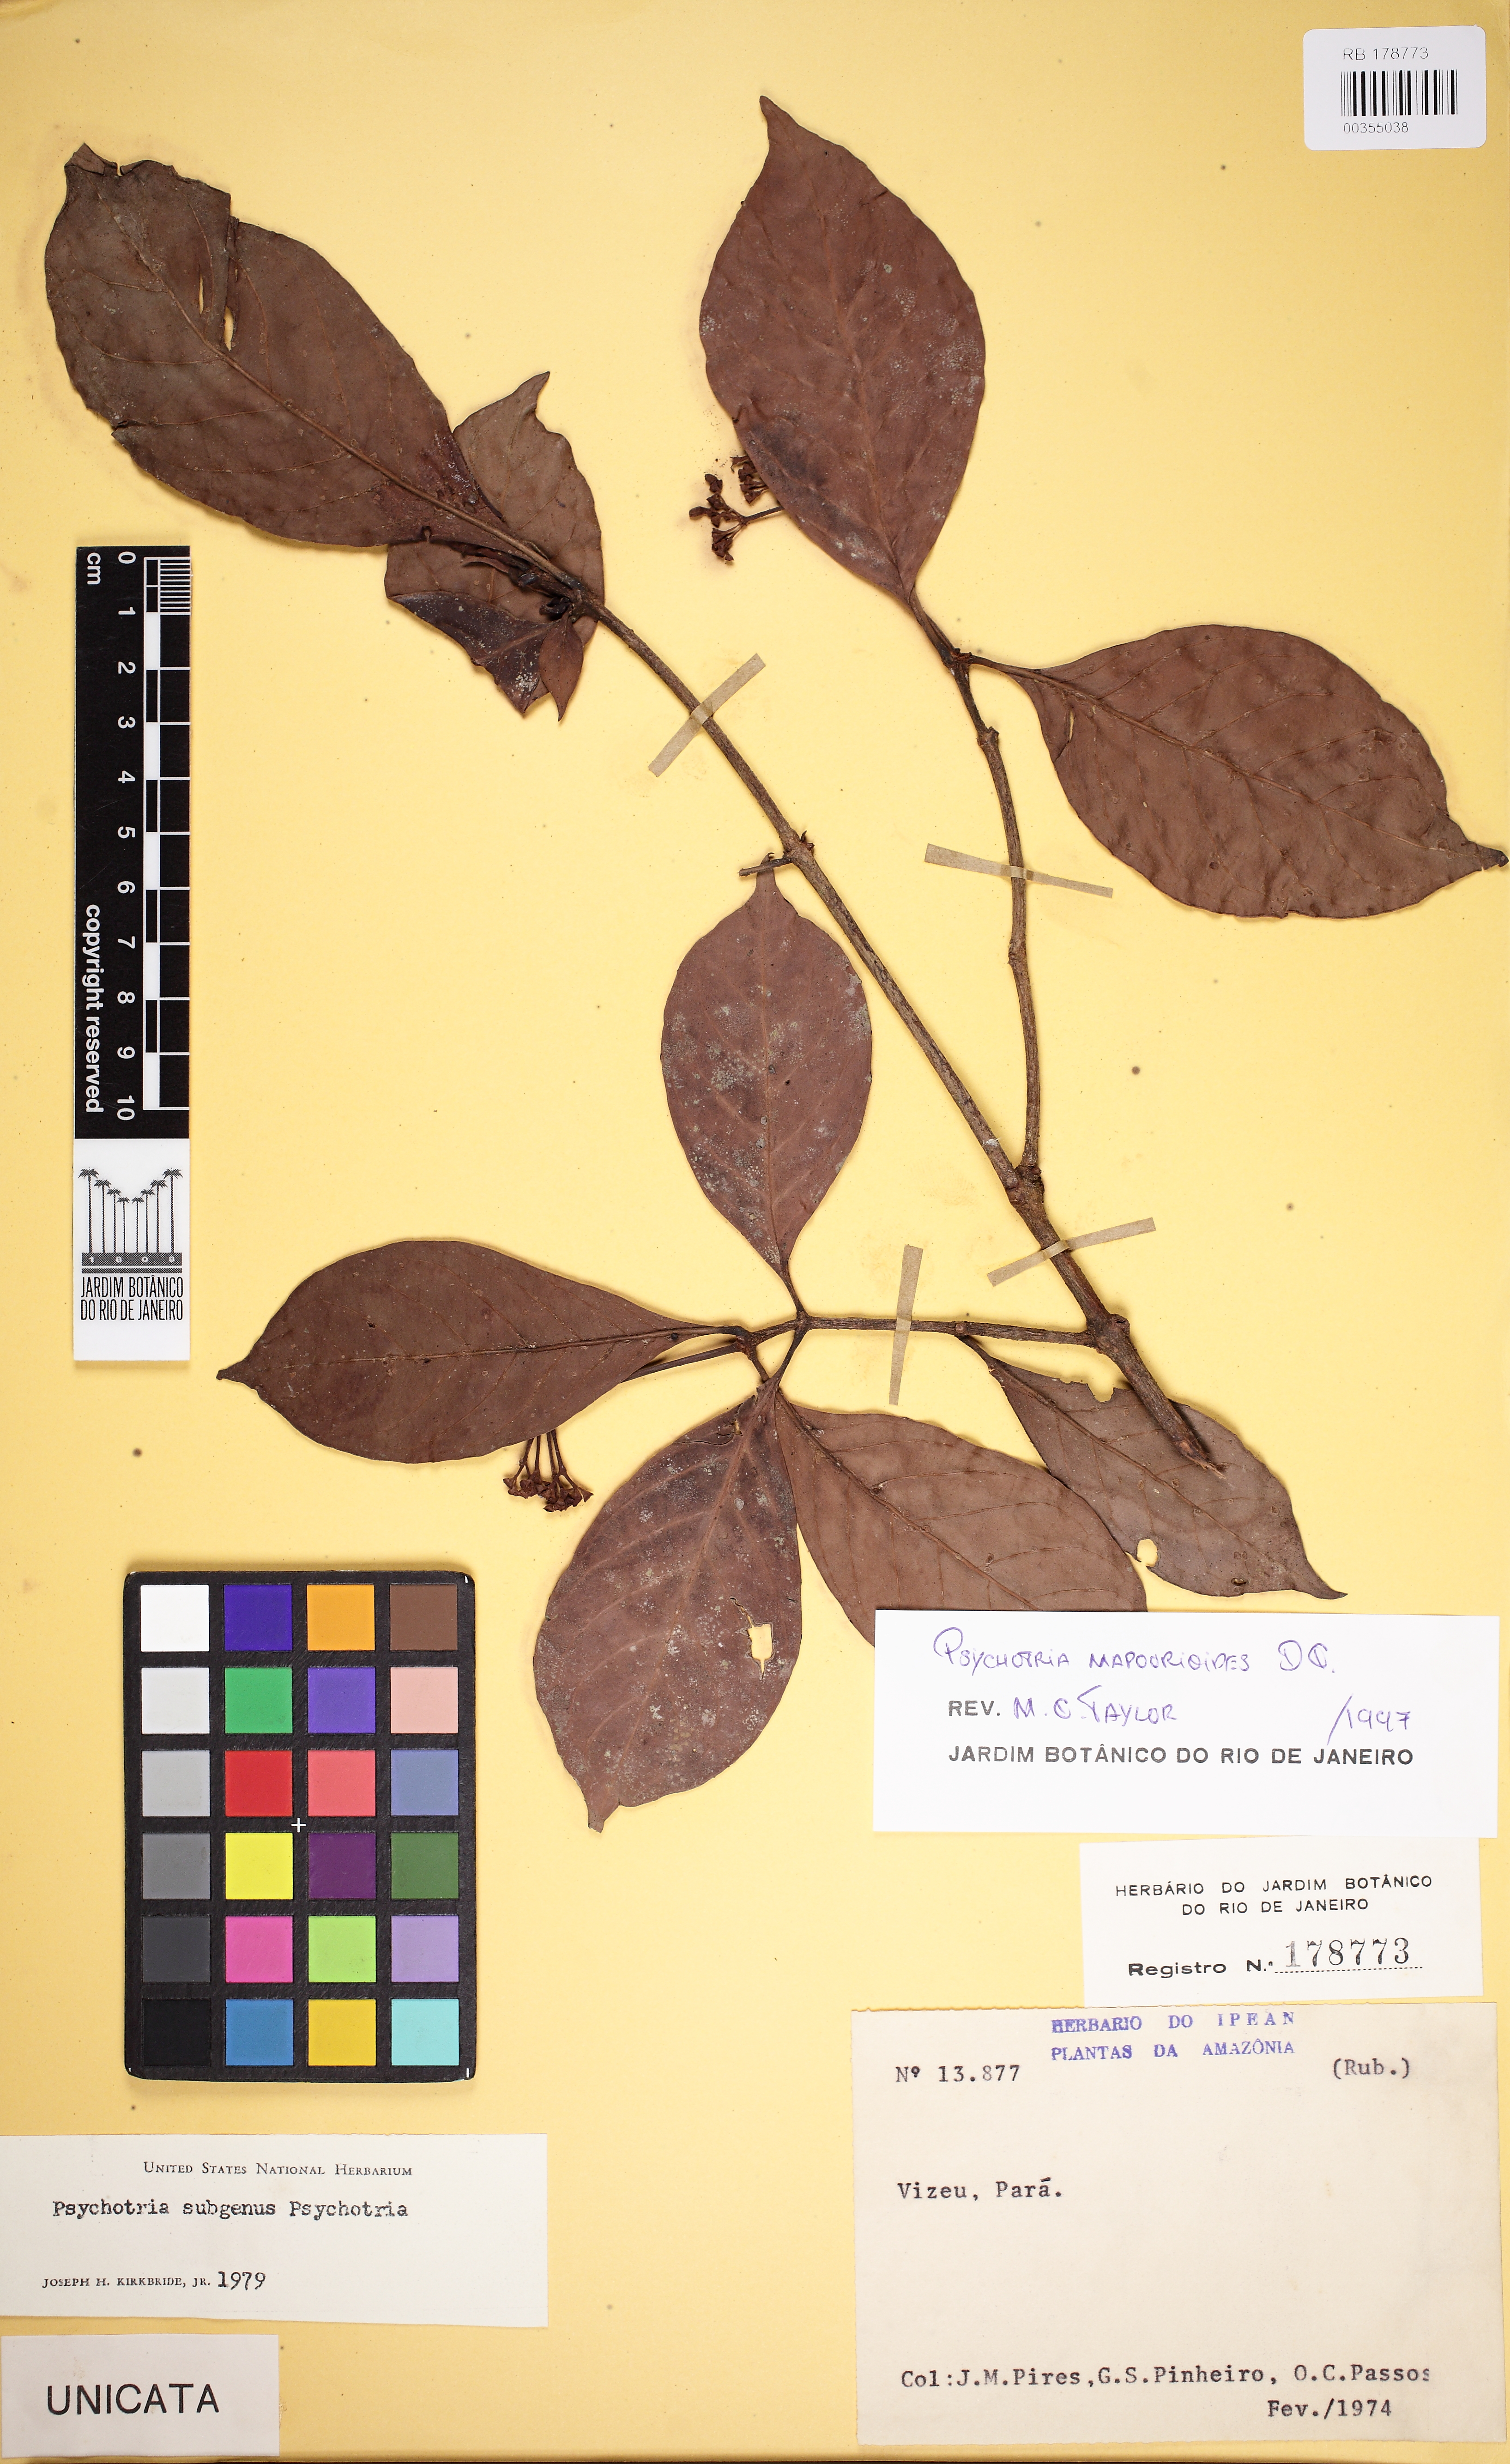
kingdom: Plantae
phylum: Tracheophyta
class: Magnoliopsida
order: Gentianales
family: Rubiaceae
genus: Psychotria
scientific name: Psychotria pedunculosa
